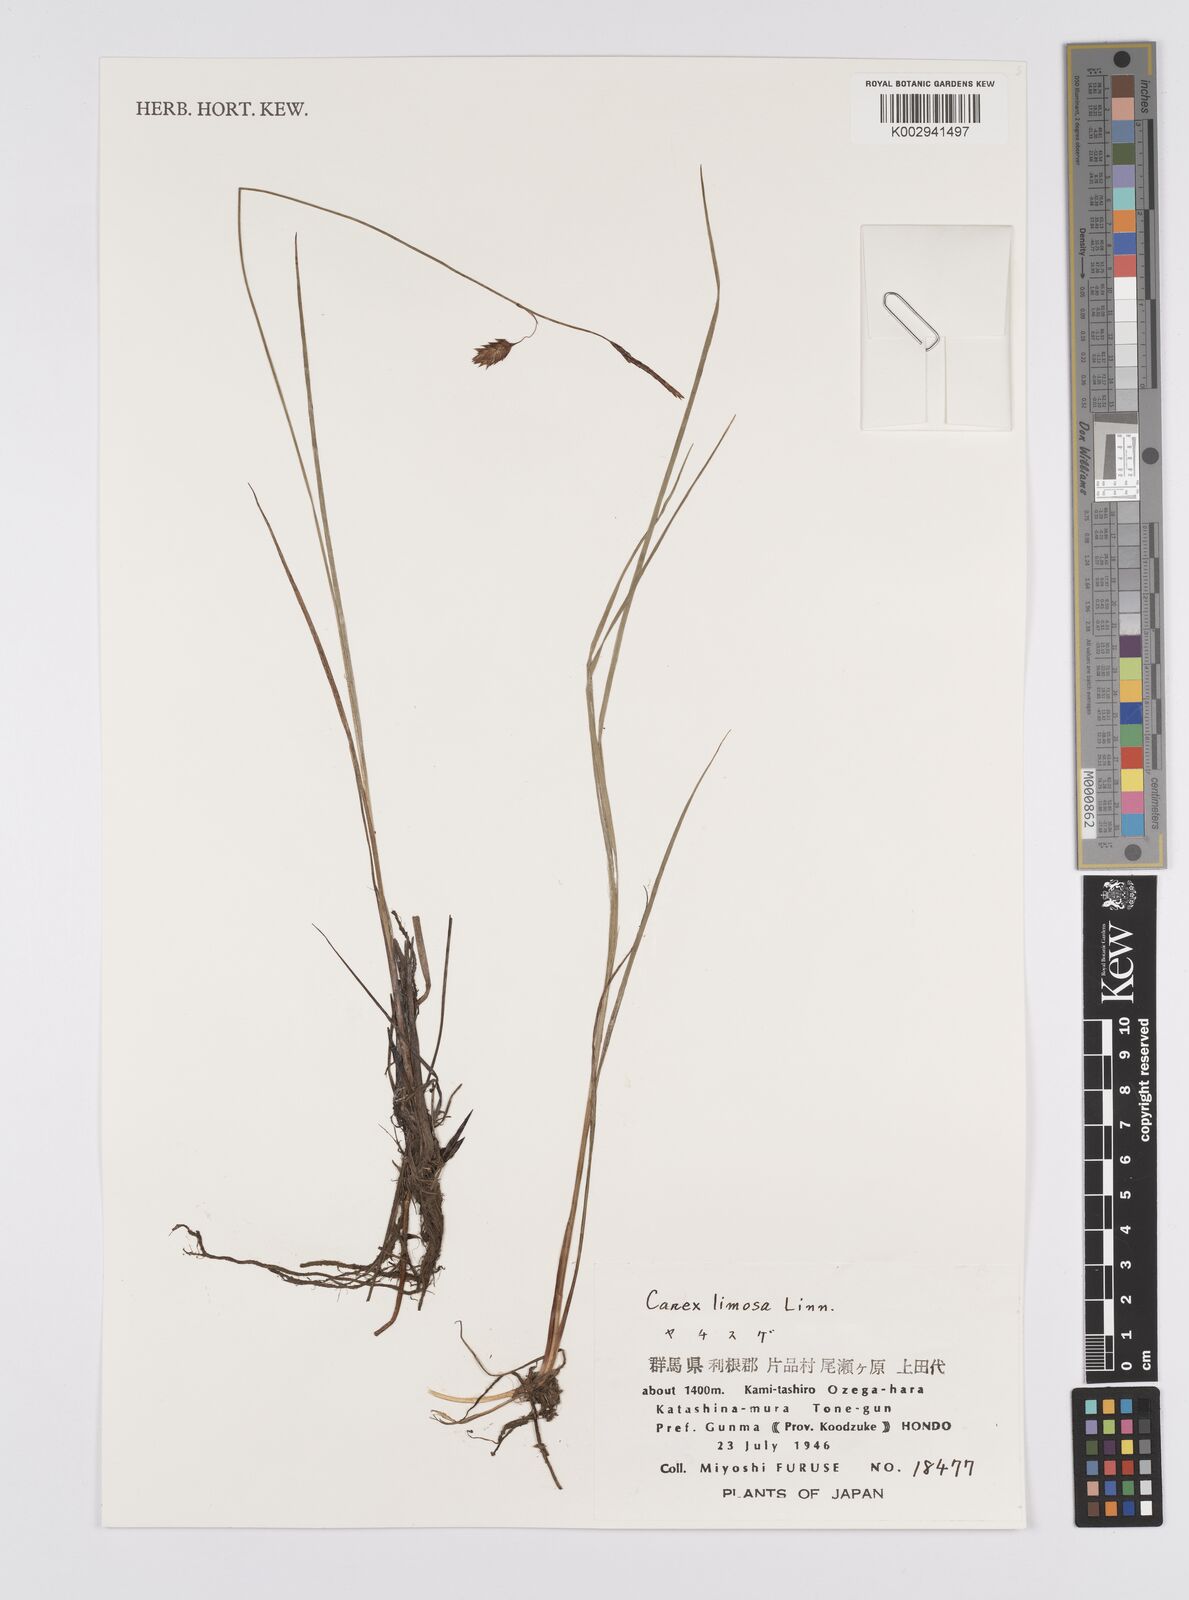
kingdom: Plantae
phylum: Tracheophyta
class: Liliopsida
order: Poales
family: Cyperaceae
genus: Carex
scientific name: Carex limosa
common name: Bog sedge
